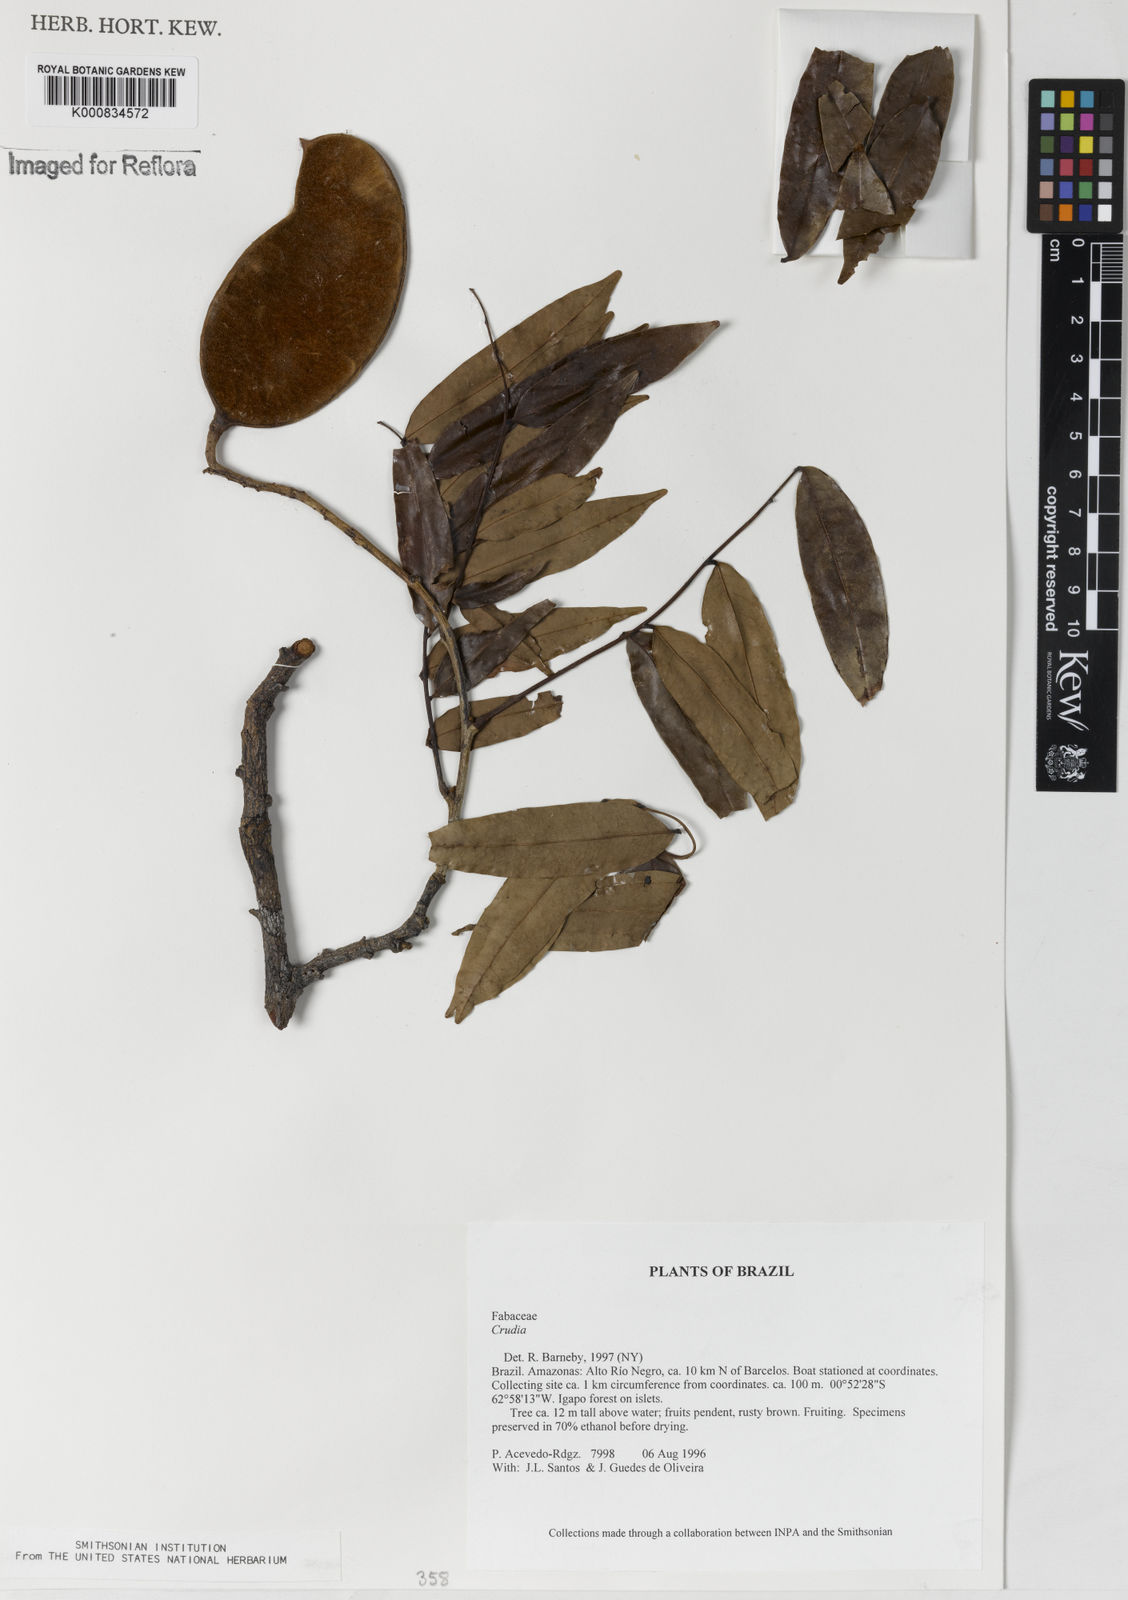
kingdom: Plantae
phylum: Tracheophyta
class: Magnoliopsida
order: Fabales
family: Fabaceae
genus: Crudia
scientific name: Crudia
